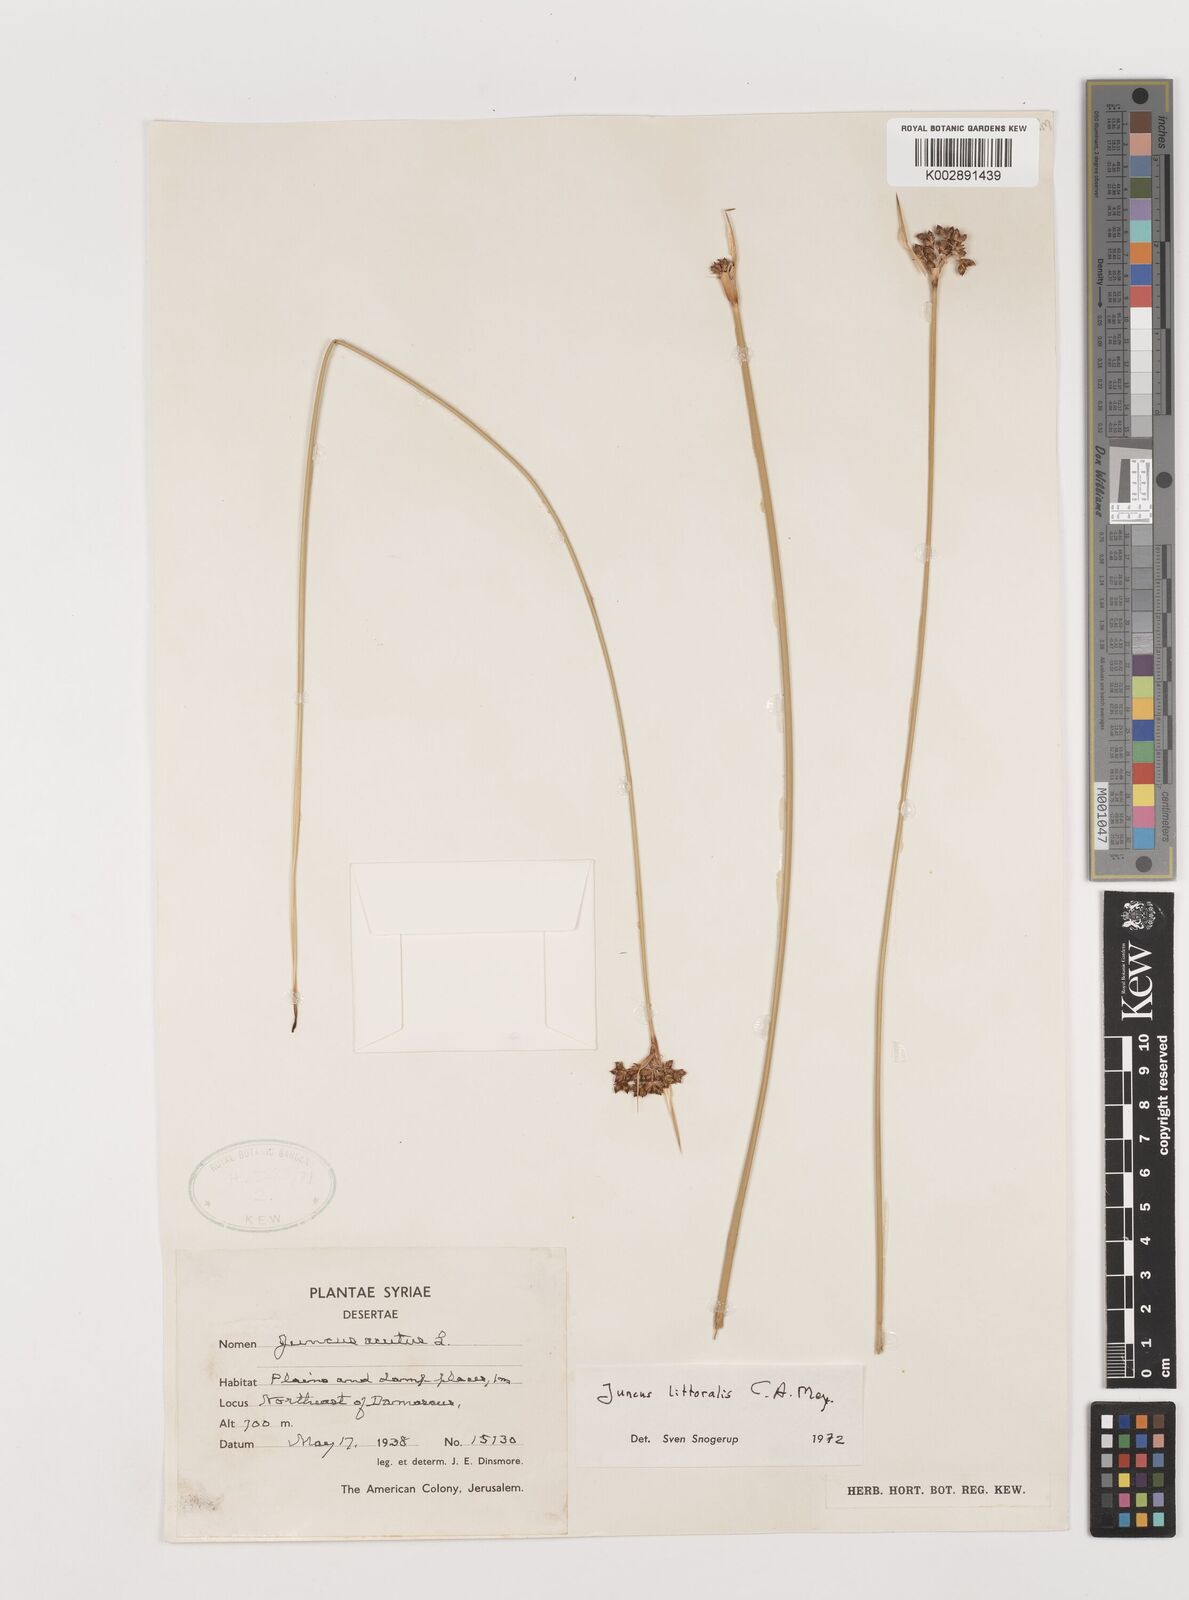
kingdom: Plantae
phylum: Tracheophyta
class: Liliopsida
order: Poales
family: Juncaceae
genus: Juncus
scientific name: Juncus littoralis
